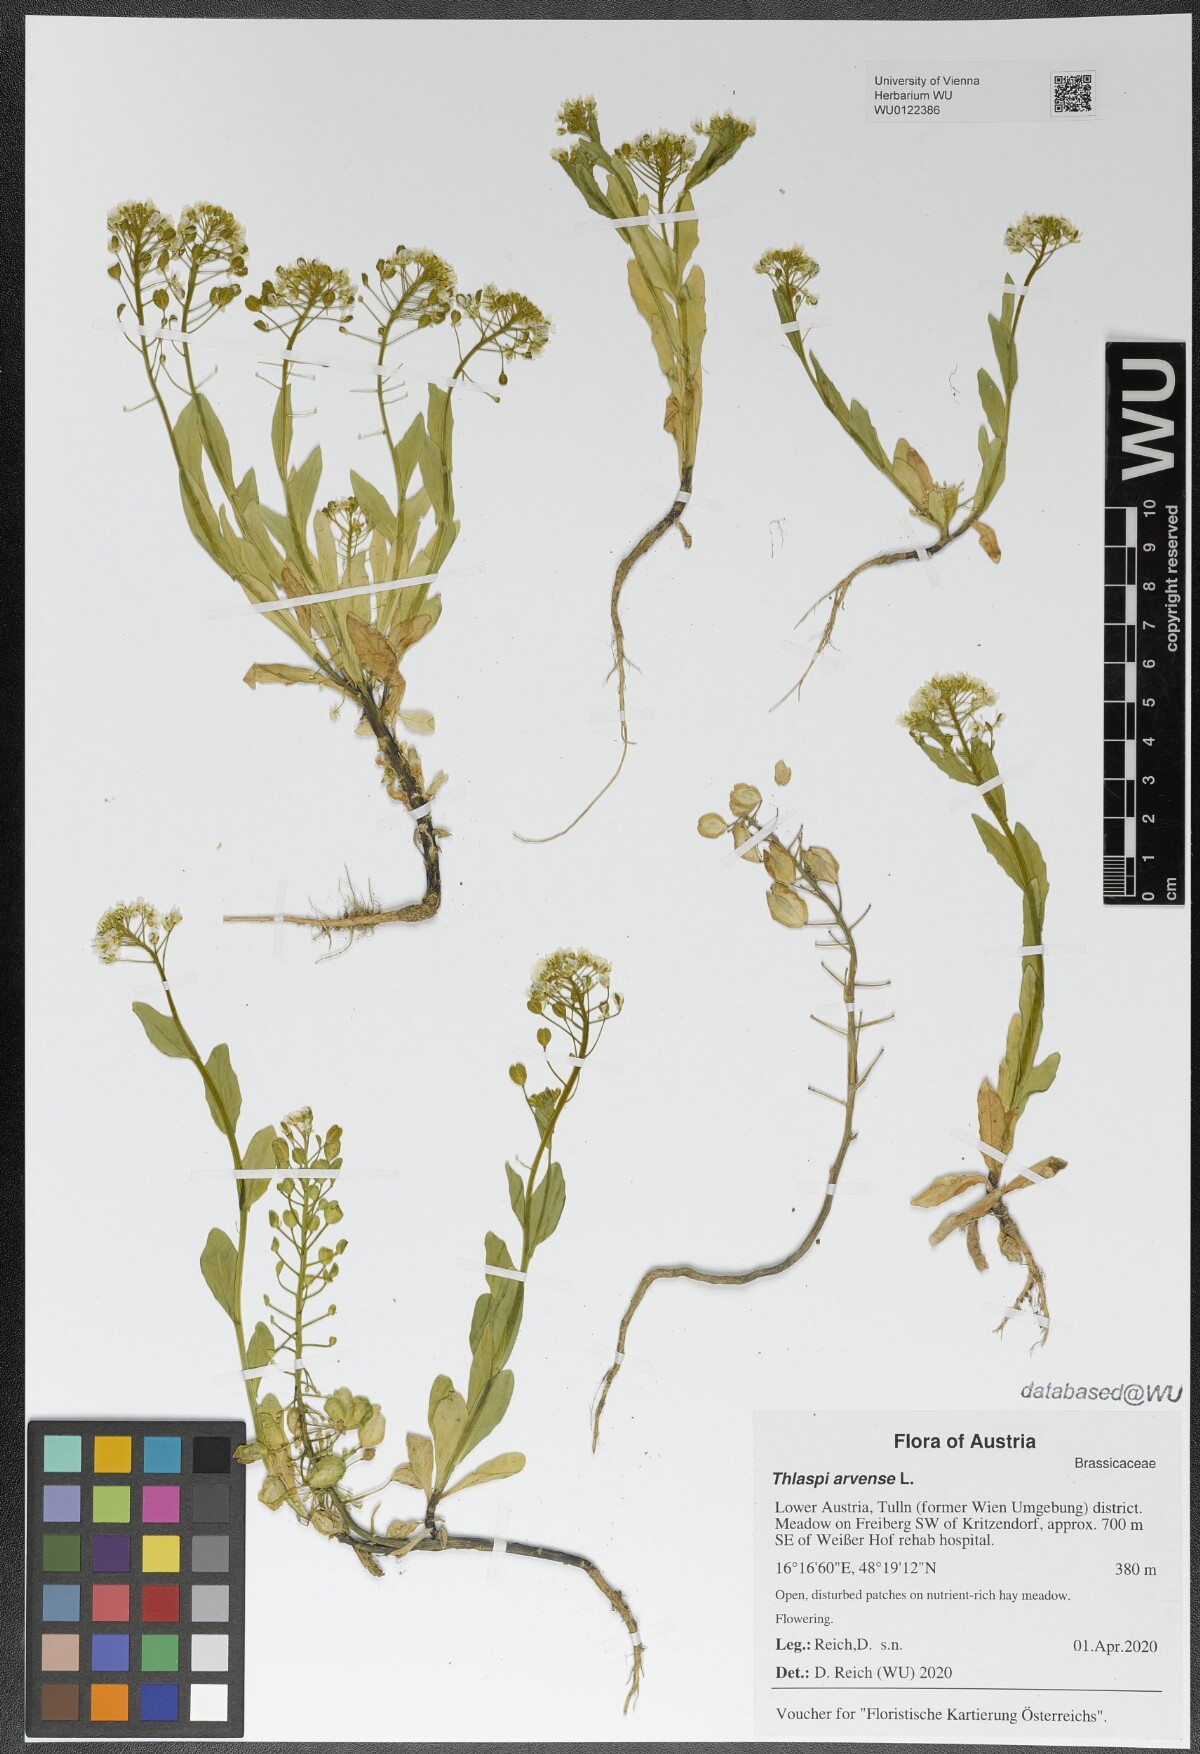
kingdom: Plantae
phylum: Tracheophyta
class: Magnoliopsida
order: Brassicales
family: Brassicaceae
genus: Thlaspi
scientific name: Thlaspi arvense
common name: Field pennycress
